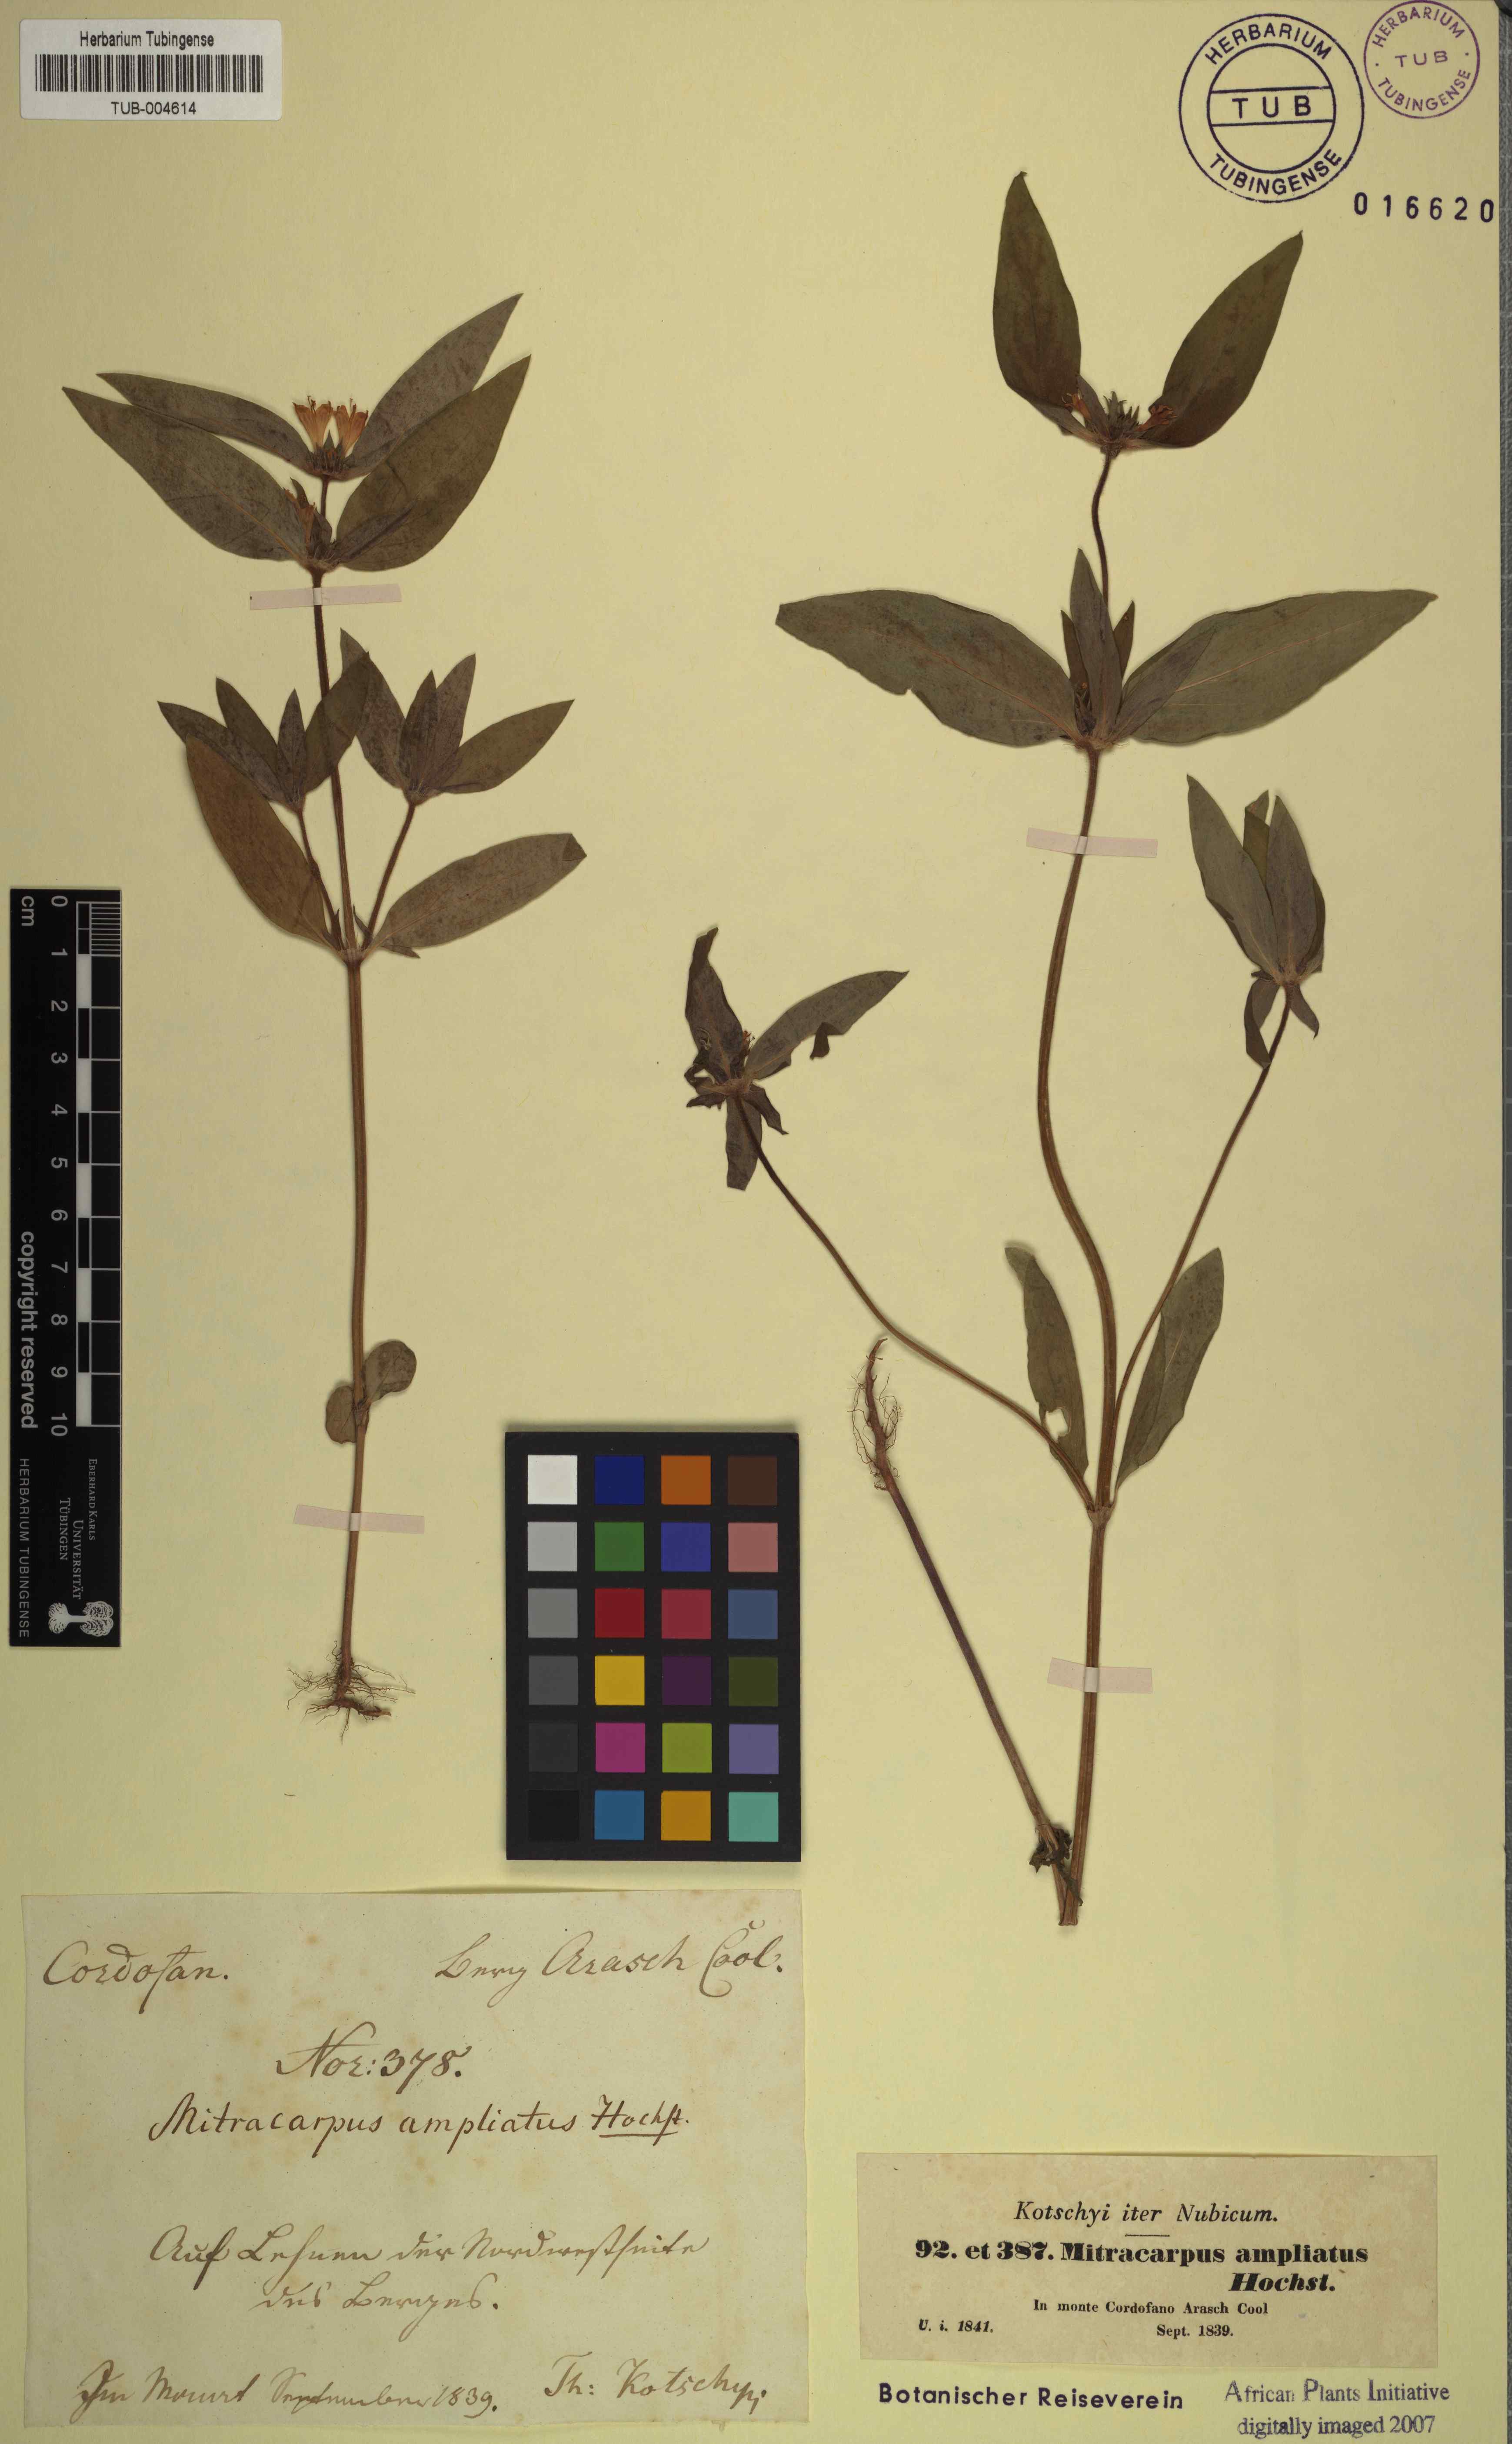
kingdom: Plantae
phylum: Tracheophyta
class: Magnoliopsida
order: Gentianales
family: Rubiaceae
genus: Spermacoce
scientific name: Spermacoce sphaerostigma
